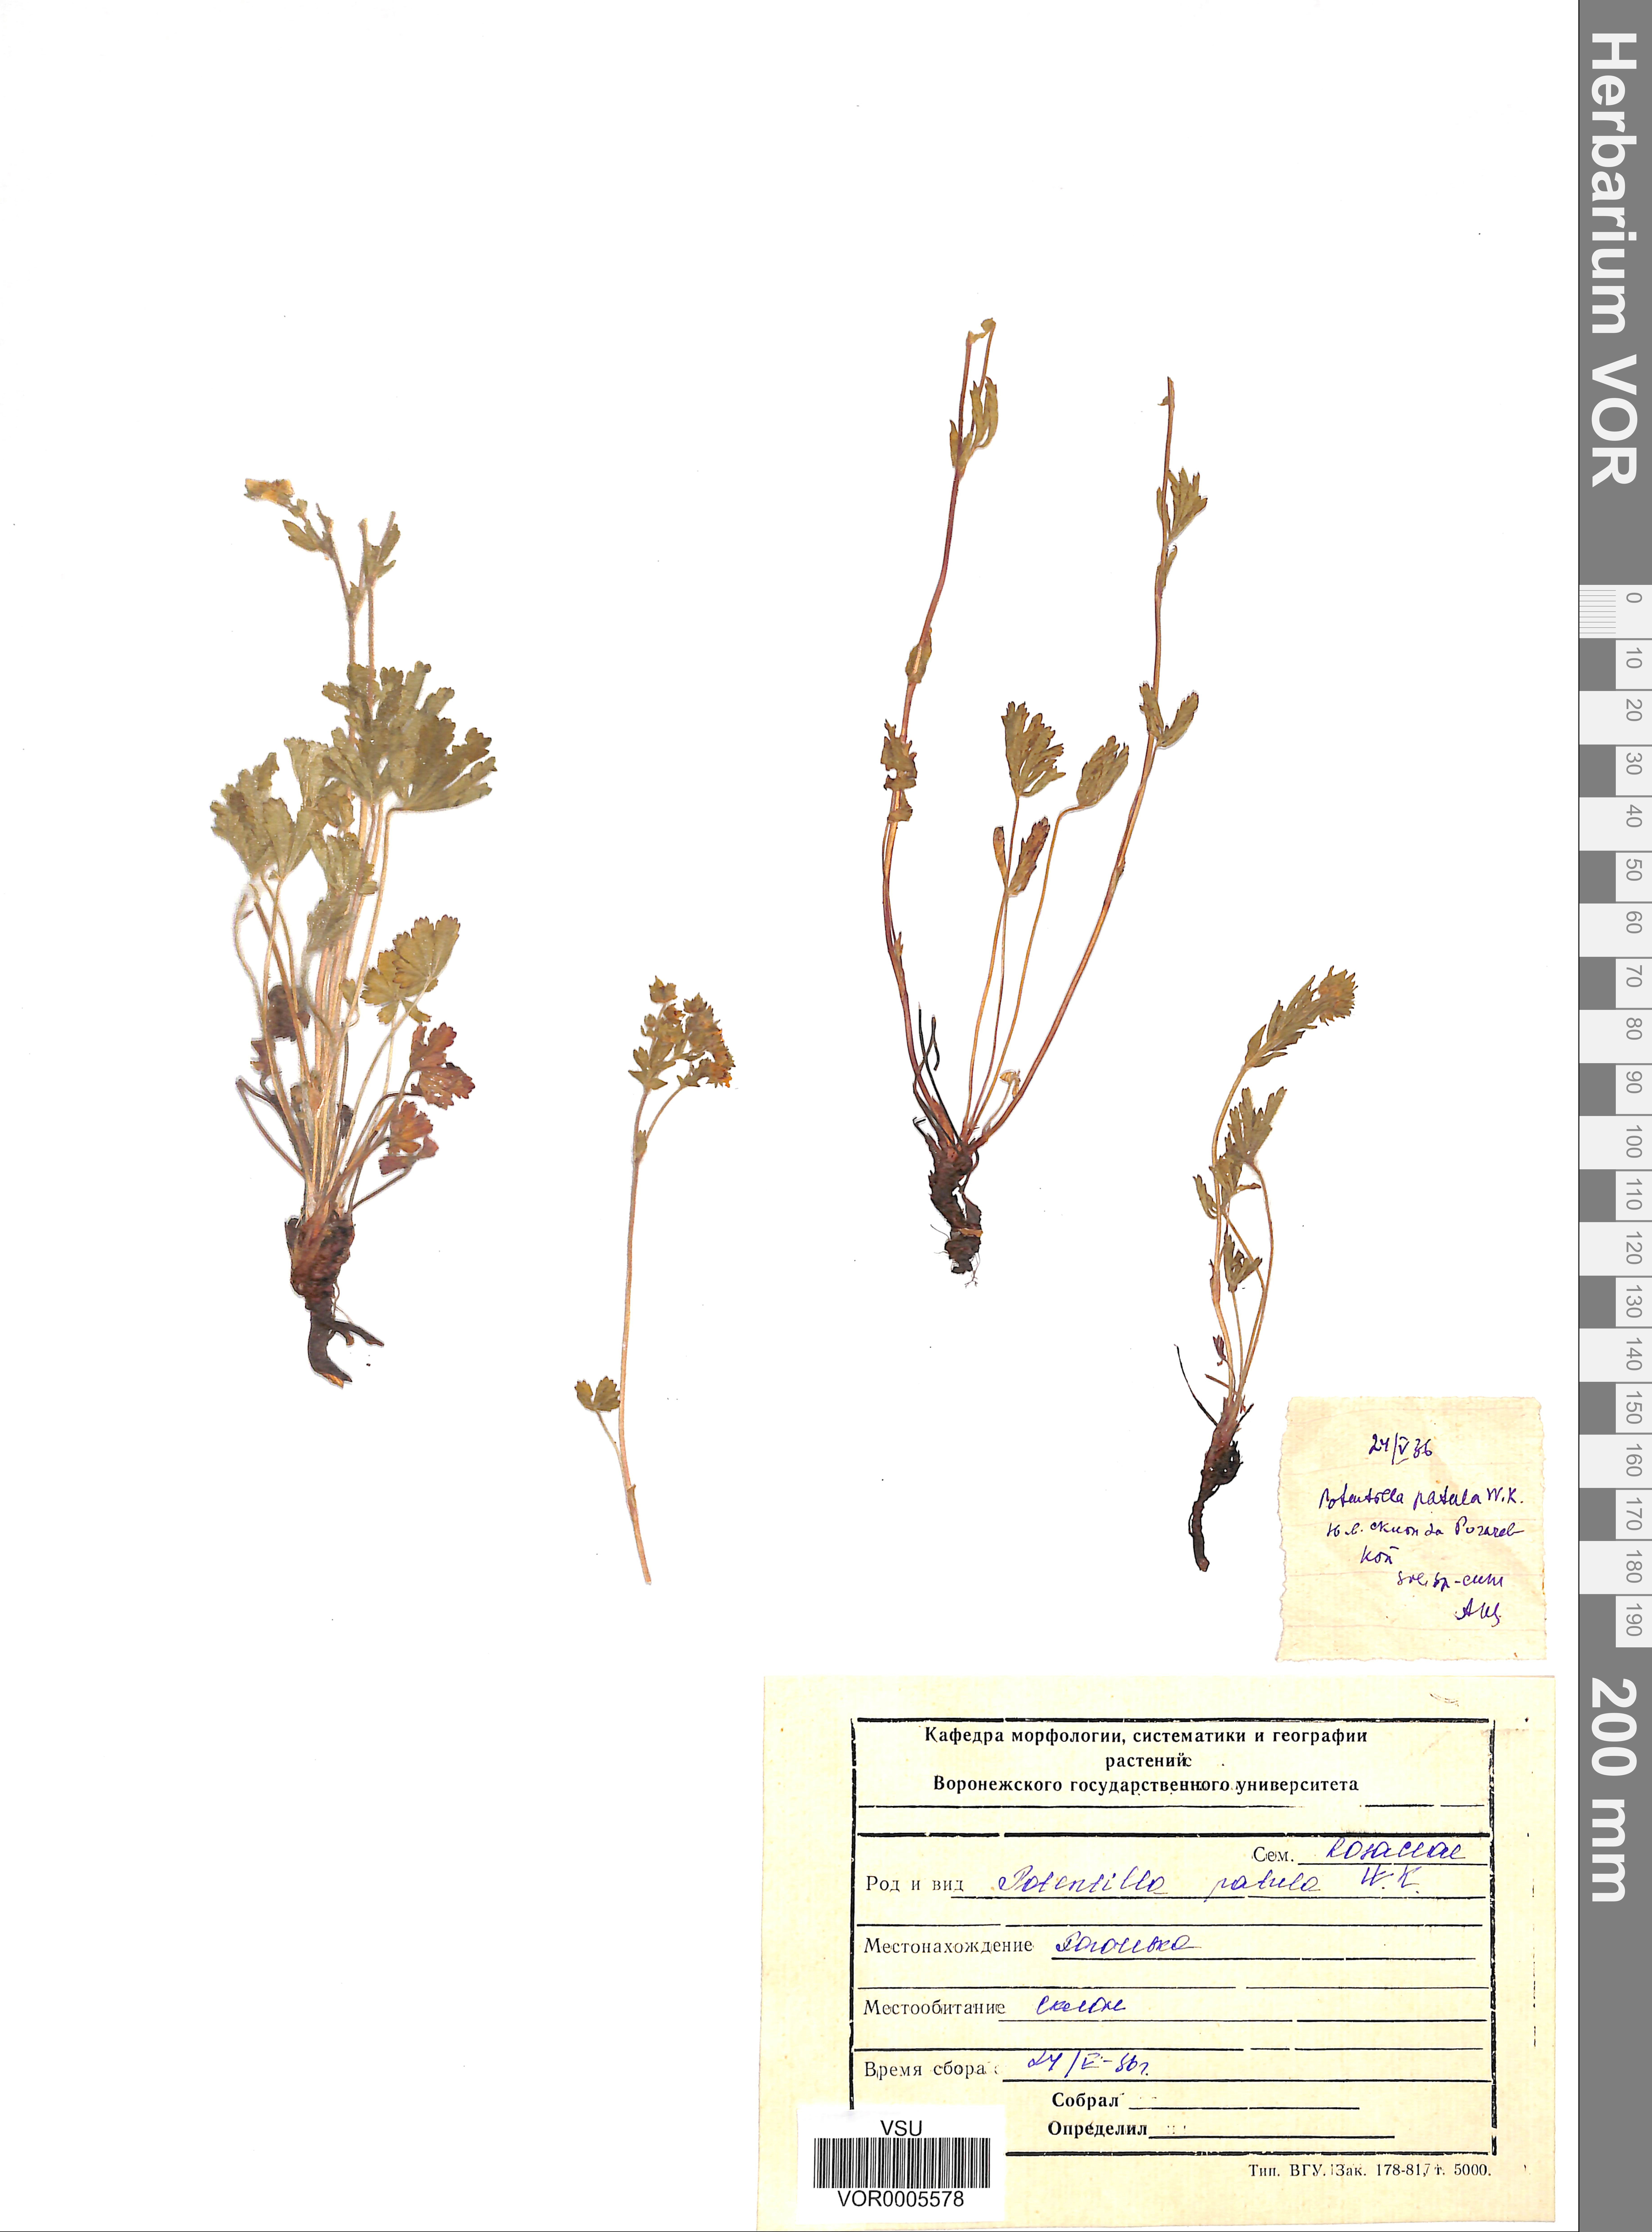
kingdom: Plantae
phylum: Tracheophyta
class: Magnoliopsida
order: Rosales
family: Rosaceae
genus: Potentilla
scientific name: Potentilla patula
